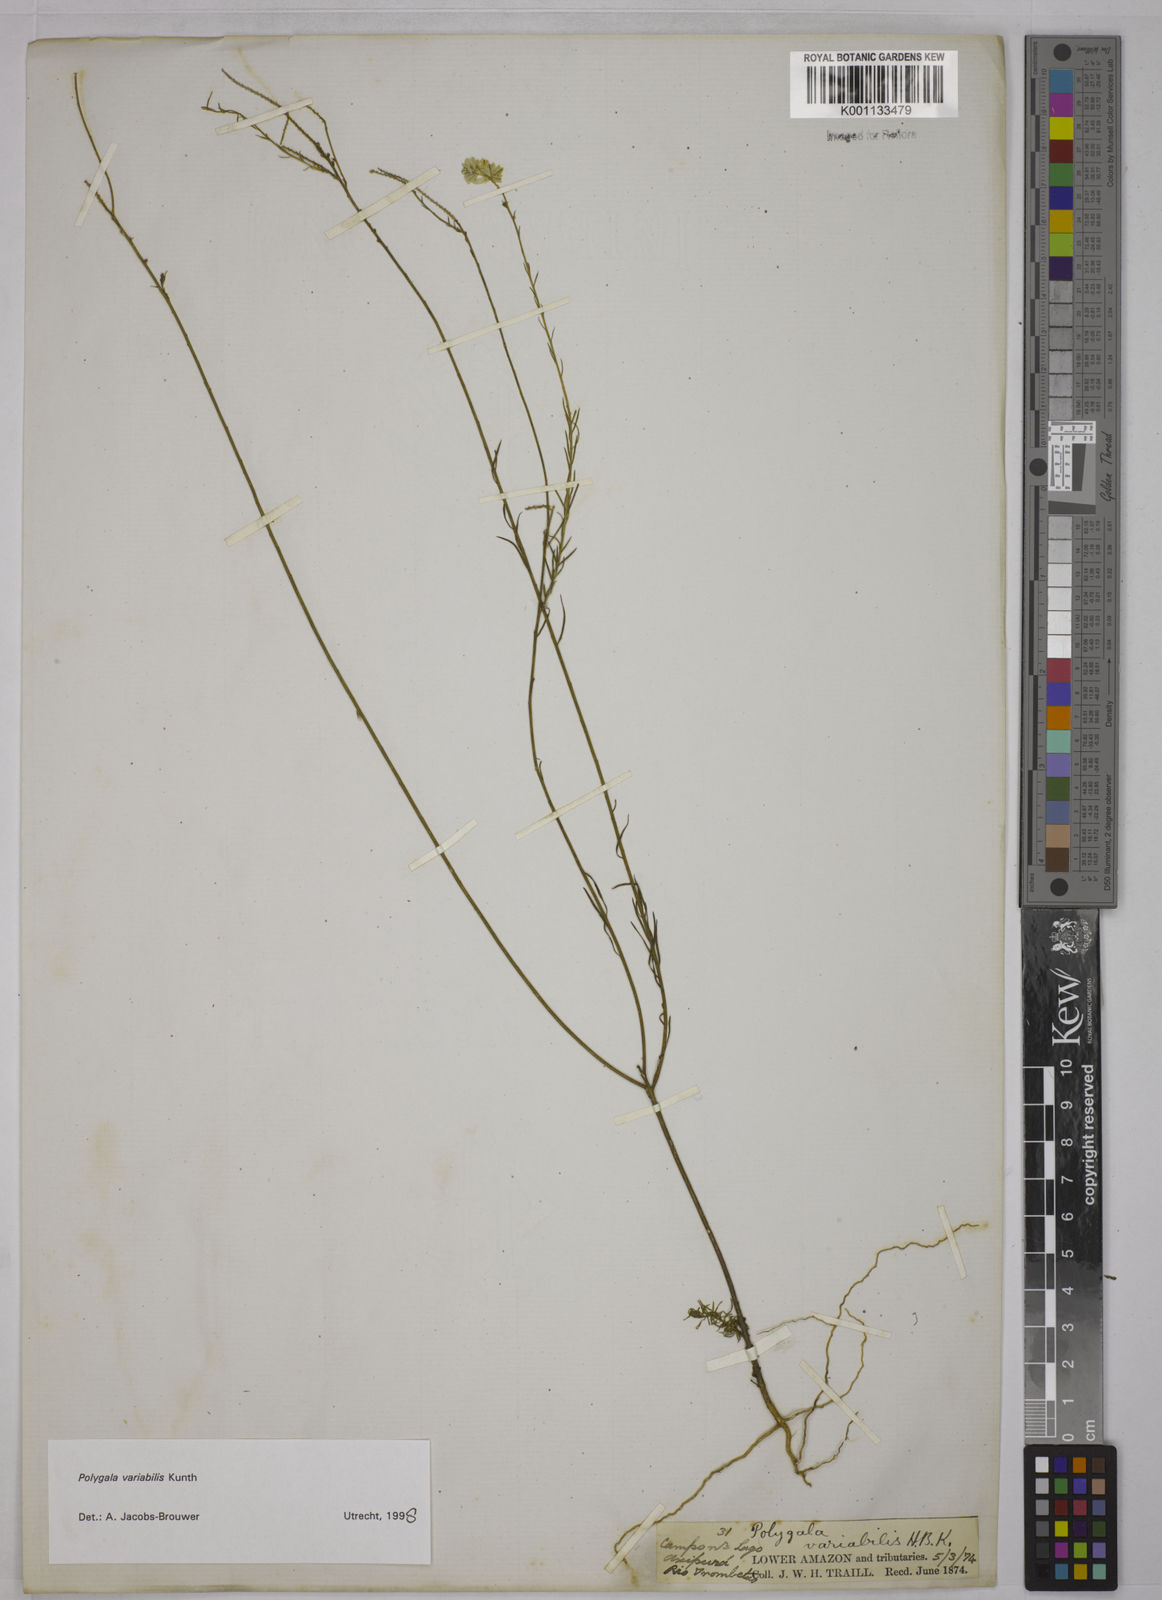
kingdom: Plantae
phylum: Tracheophyta
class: Magnoliopsida
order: Fabales
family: Polygalaceae
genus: Polygala
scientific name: Polygala trichosperma
